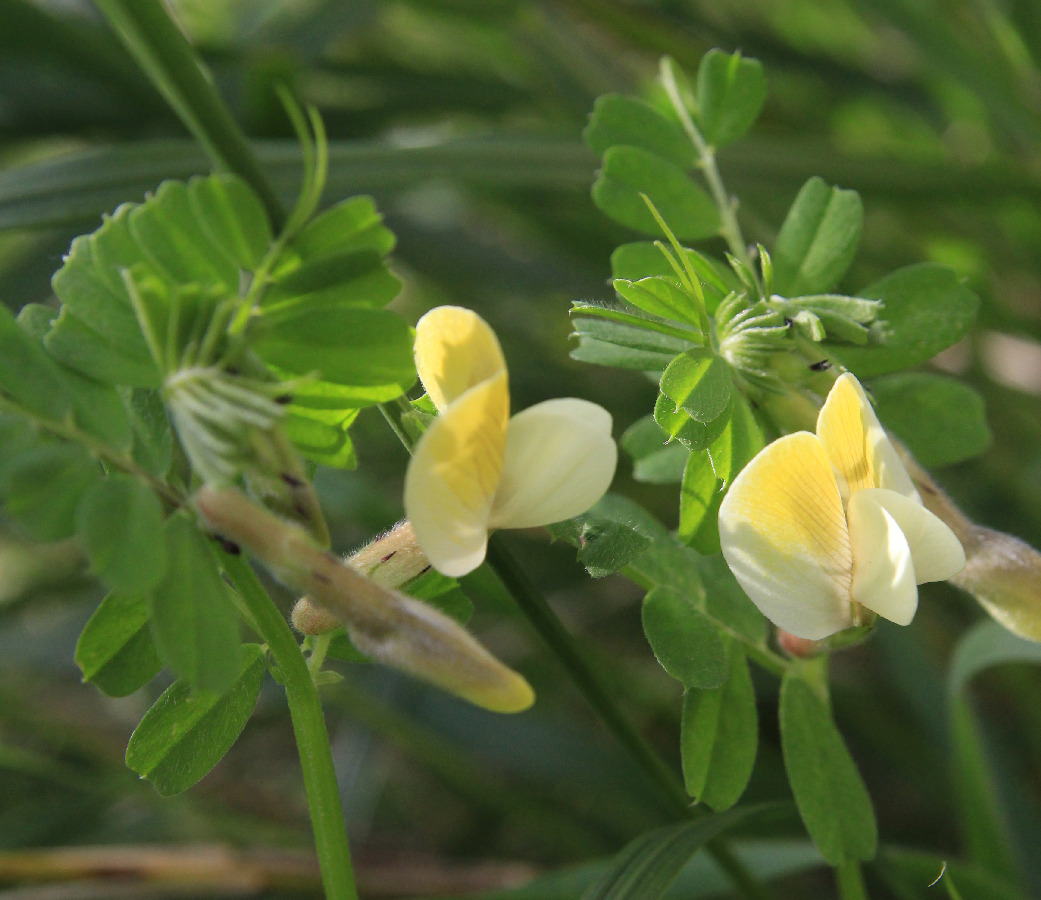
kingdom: Plantae
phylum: Tracheophyta
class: Magnoliopsida
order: Fabales
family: Fabaceae
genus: Vicia
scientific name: Vicia hybrida
